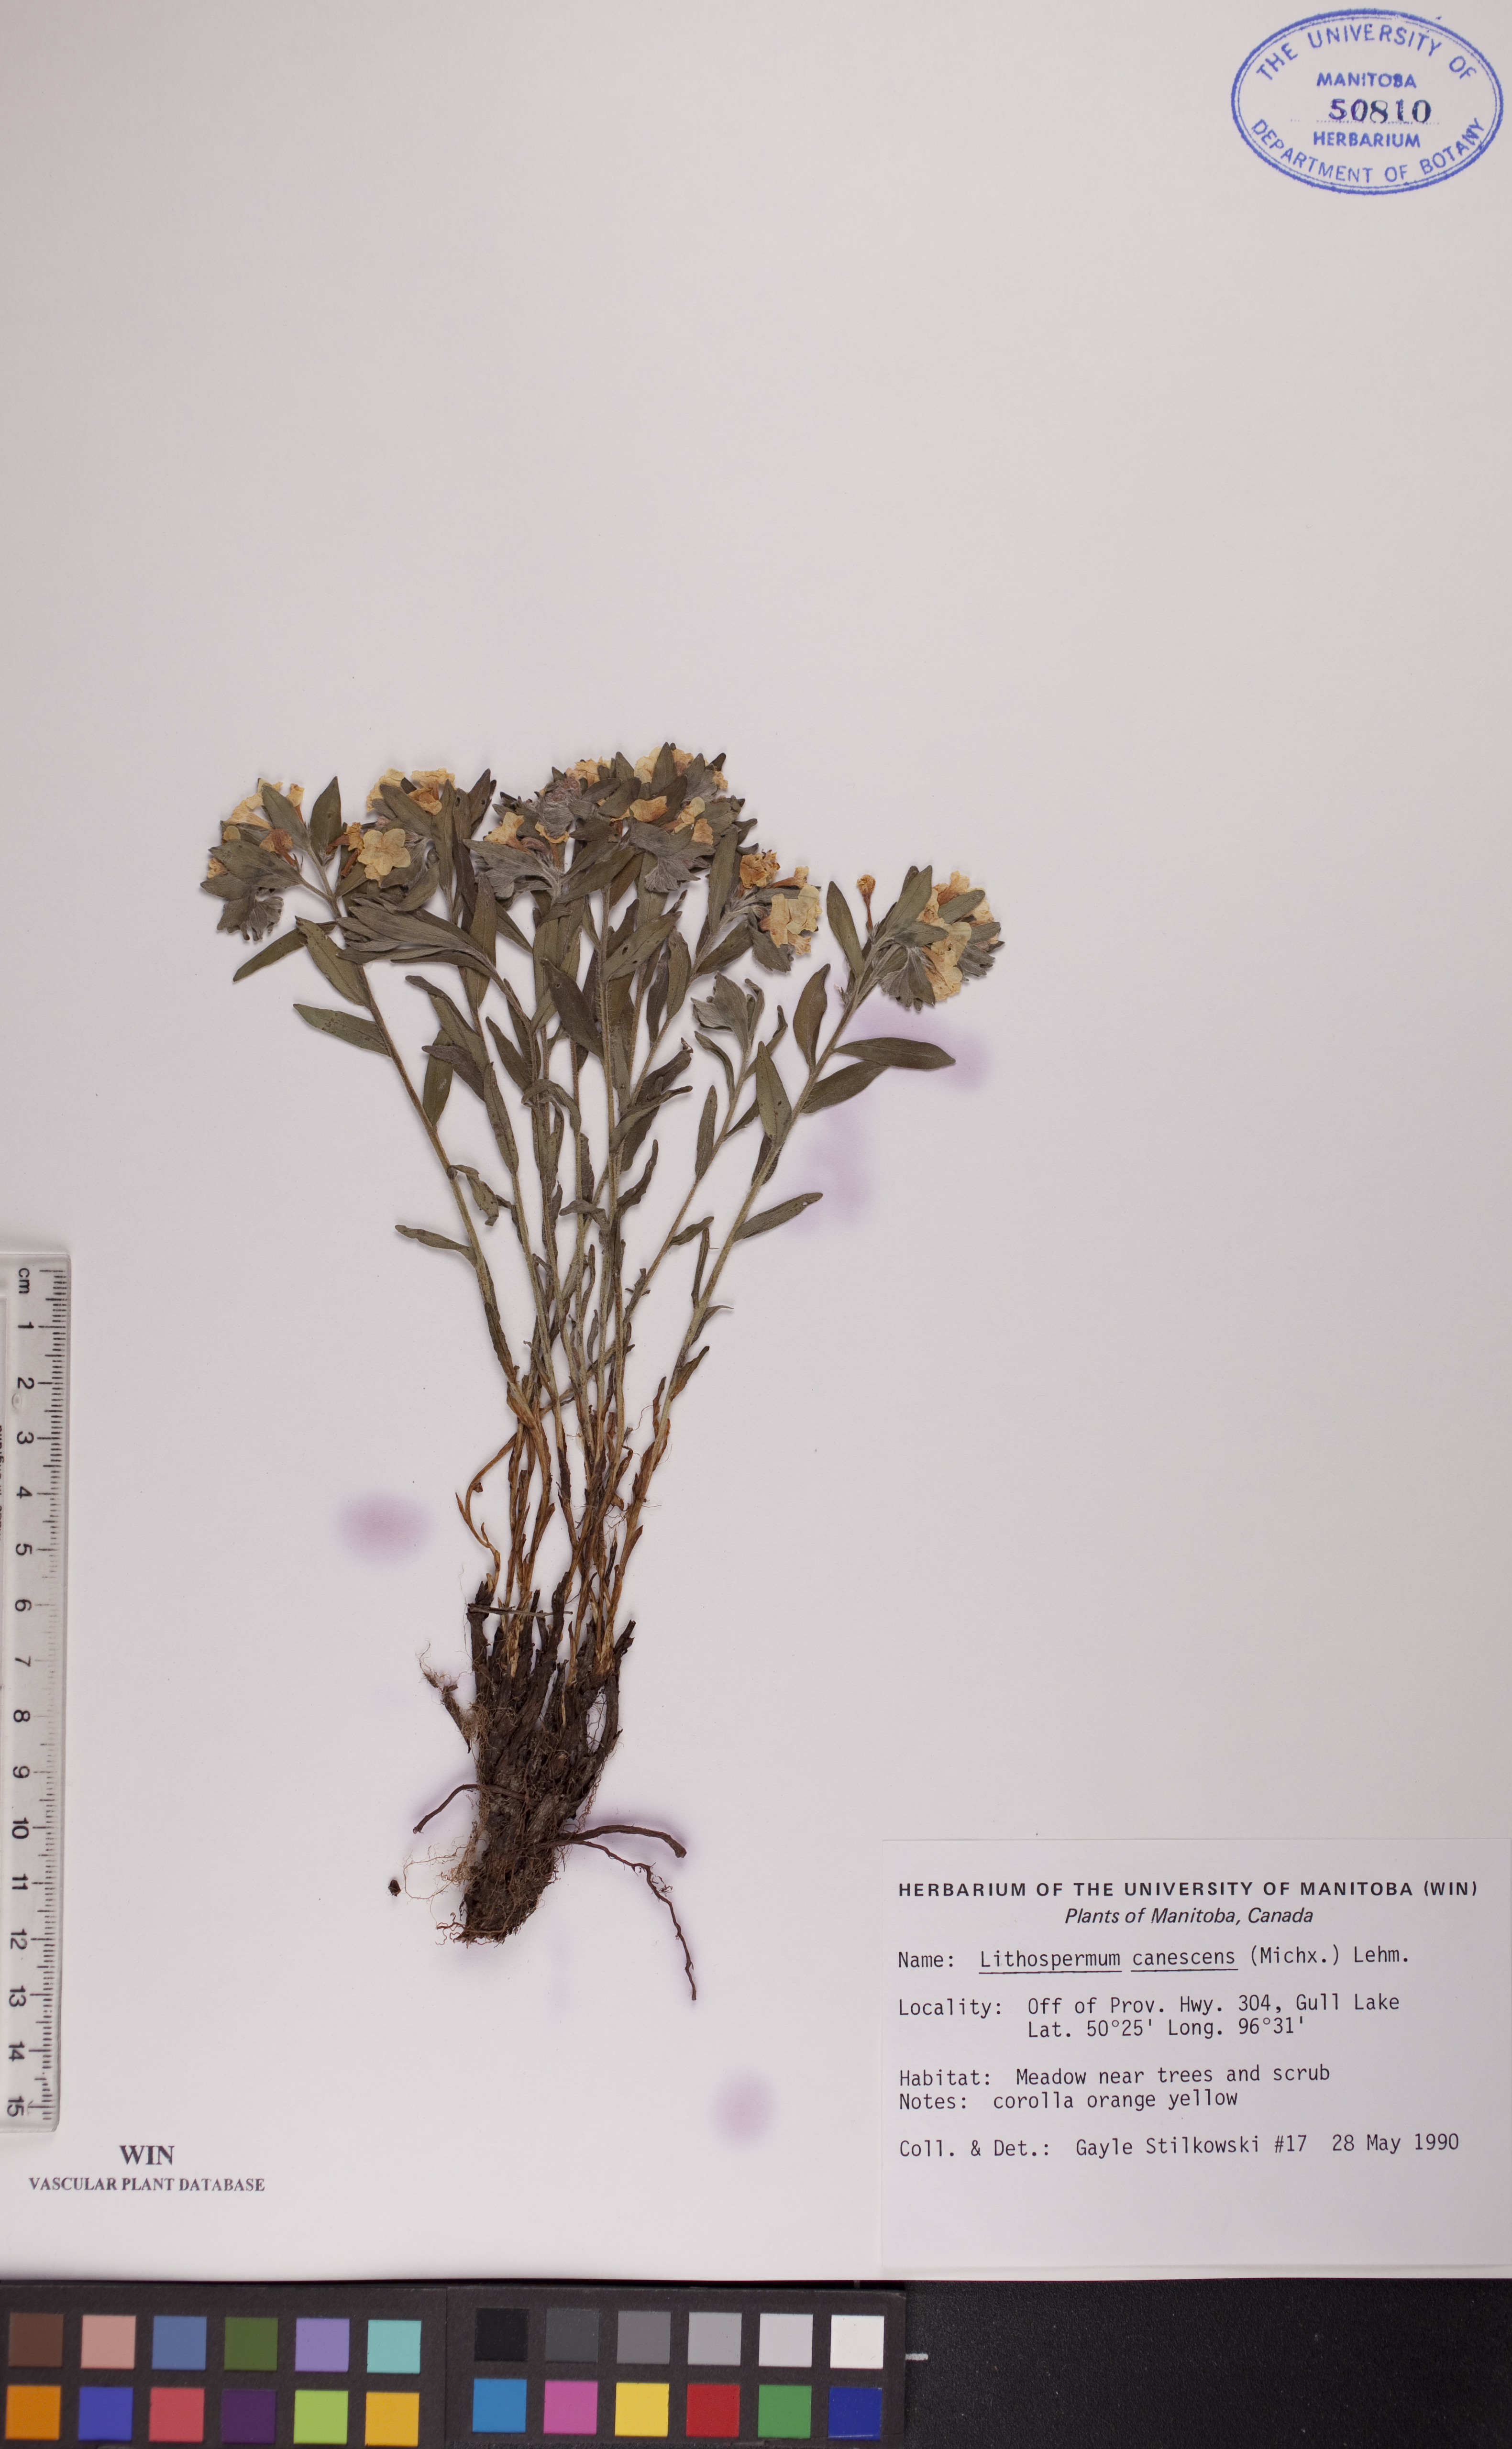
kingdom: Plantae
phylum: Tracheophyta
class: Magnoliopsida
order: Boraginales
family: Boraginaceae
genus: Lithospermum
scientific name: Lithospermum canescens
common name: Hoary puccoon
